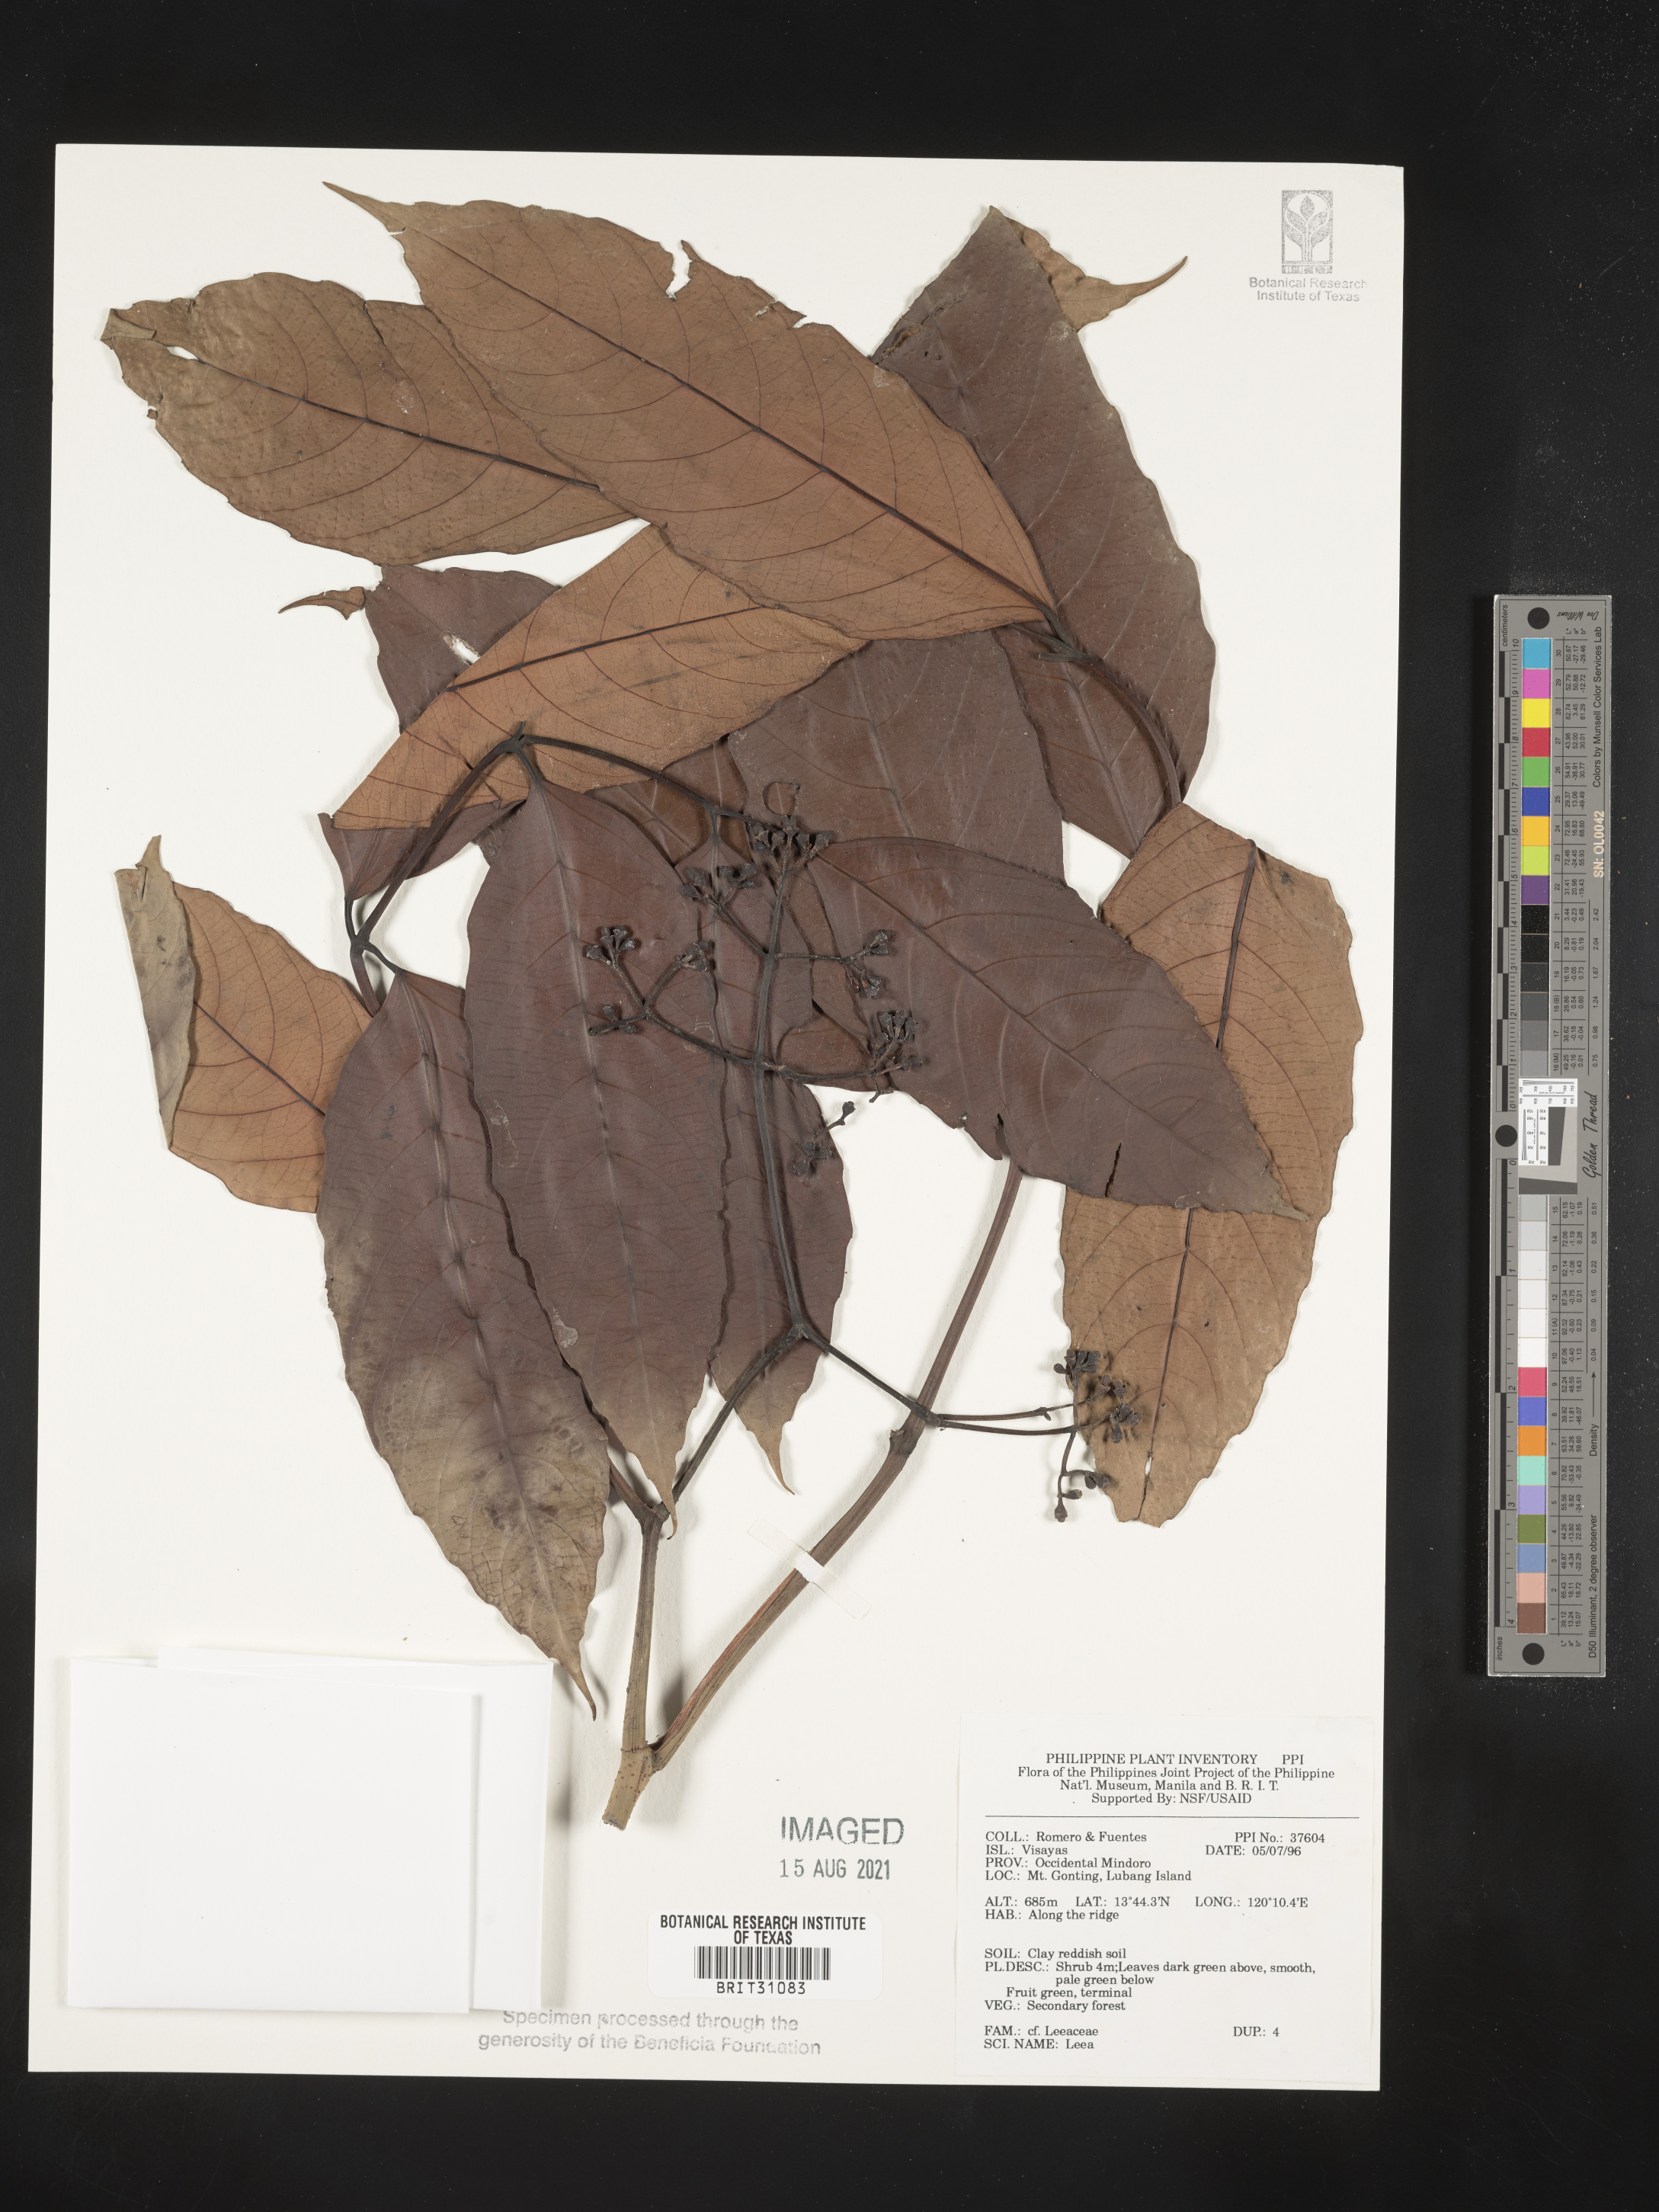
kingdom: Plantae
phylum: Tracheophyta
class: Magnoliopsida
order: Vitales
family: Vitaceae
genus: Leea
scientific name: Leea
